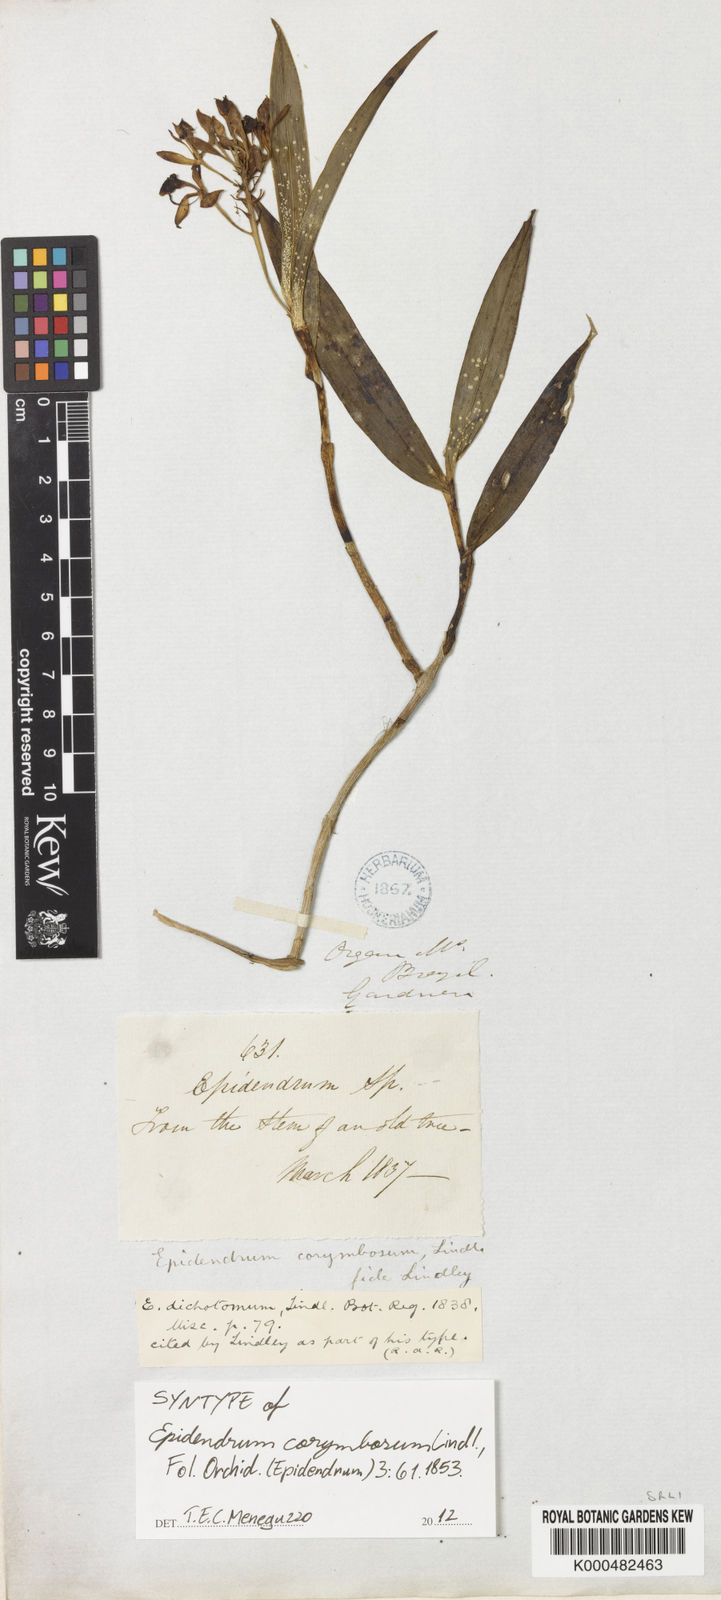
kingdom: Plantae
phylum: Tracheophyta
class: Liliopsida
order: Asparagales
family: Orchidaceae
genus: Epidendrum
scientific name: Epidendrum proligerum
